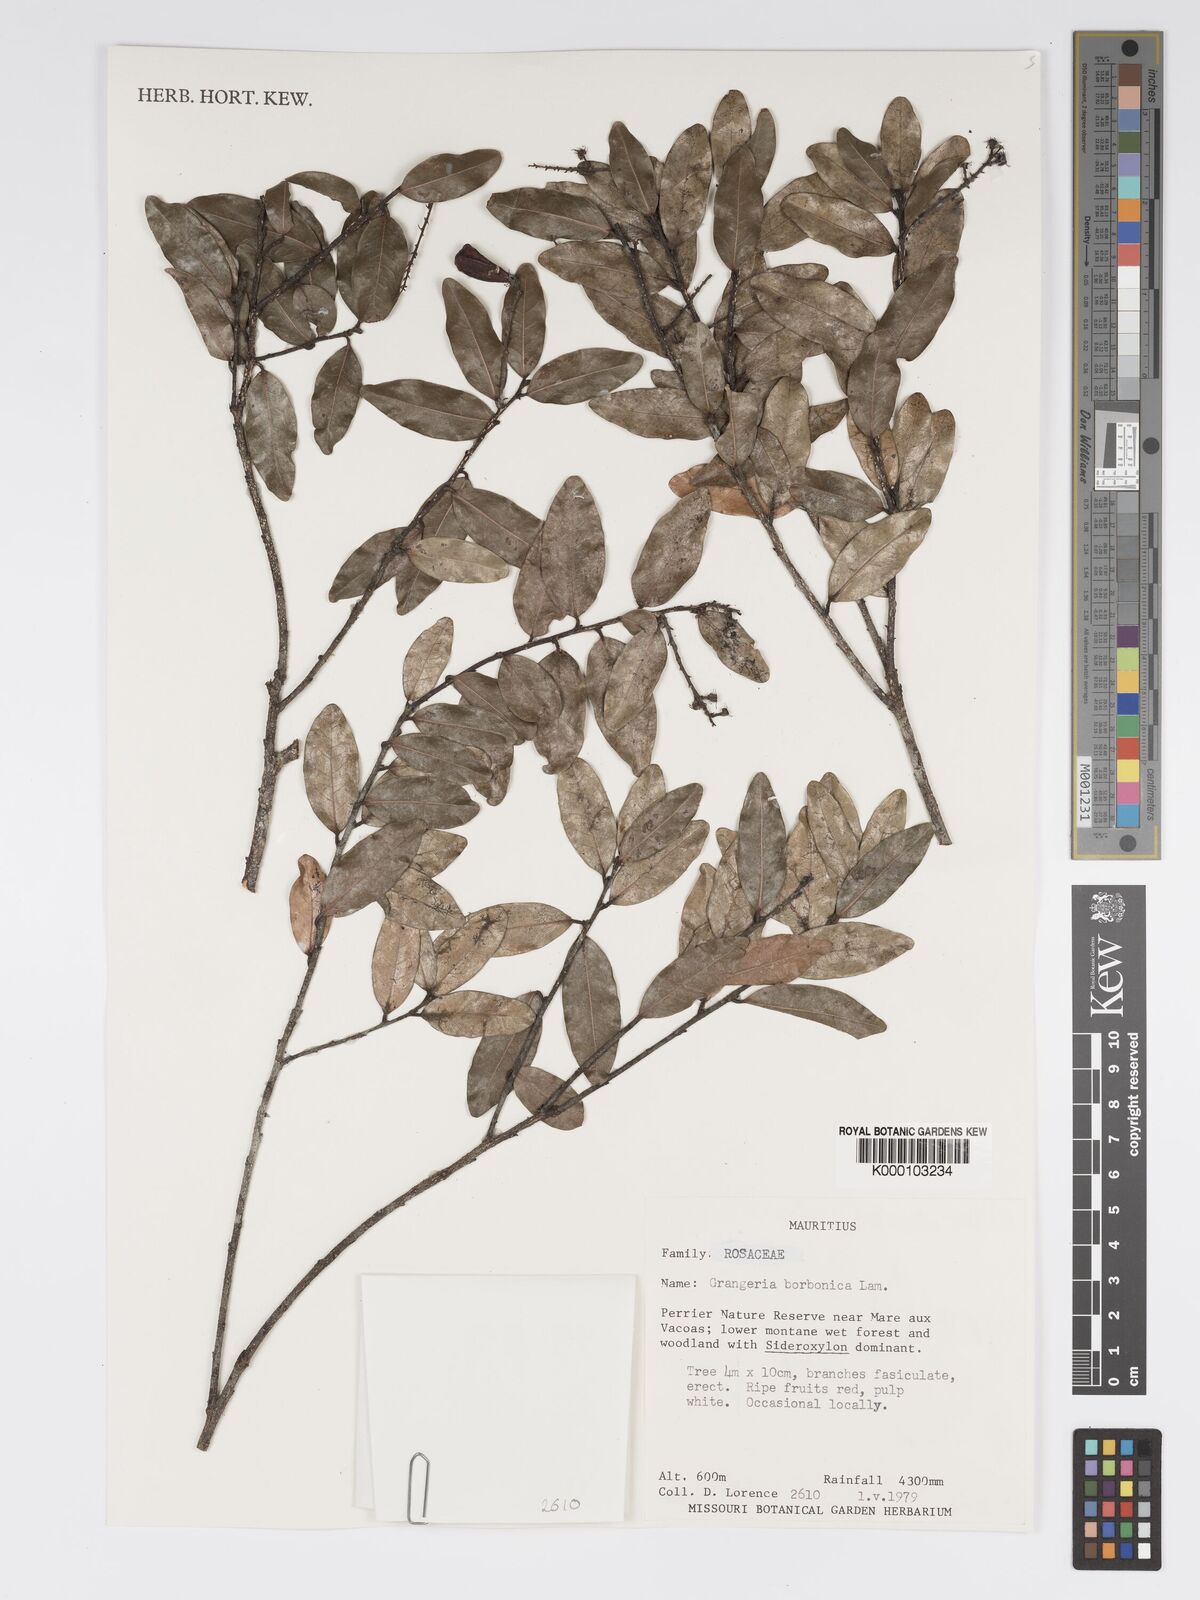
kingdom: Plantae
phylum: Tracheophyta
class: Magnoliopsida
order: Malpighiales
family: Chrysobalanaceae
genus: Grangeria
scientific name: Grangeria borbonica
